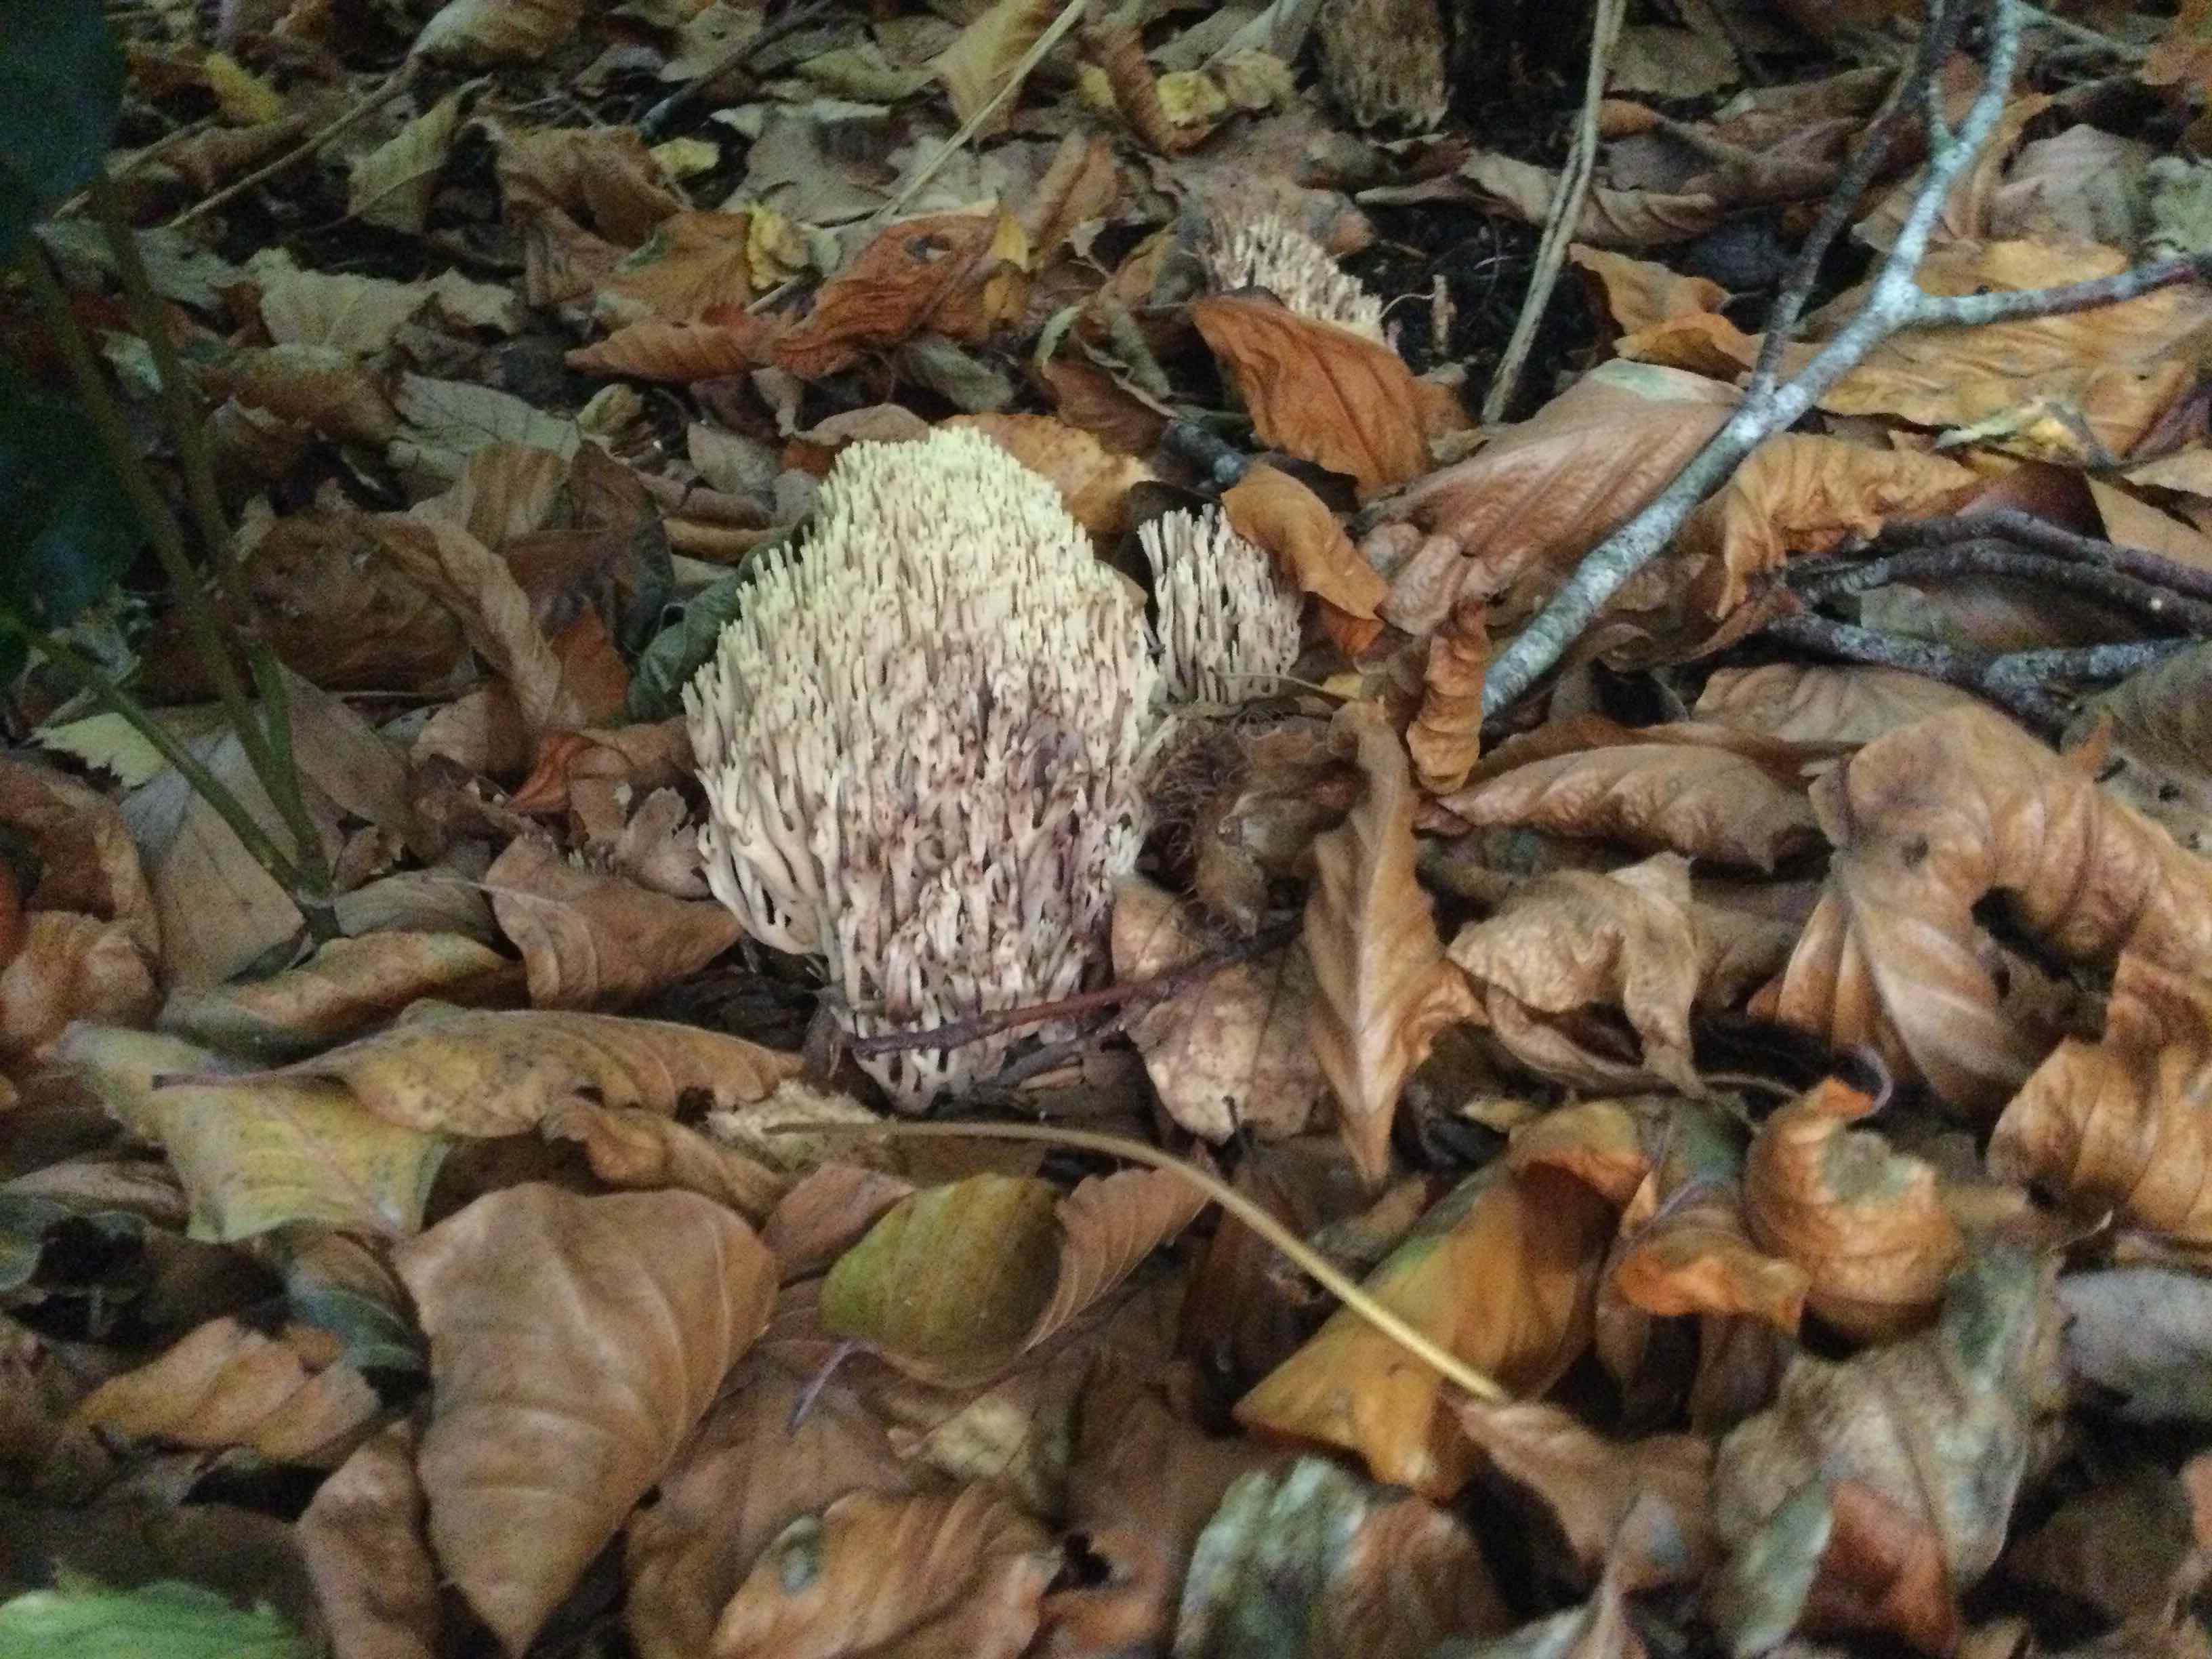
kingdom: Fungi
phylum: Basidiomycota
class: Agaricomycetes
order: Gomphales
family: Gomphaceae
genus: Ramaria
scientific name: Ramaria stricta
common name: rank koralsvamp
